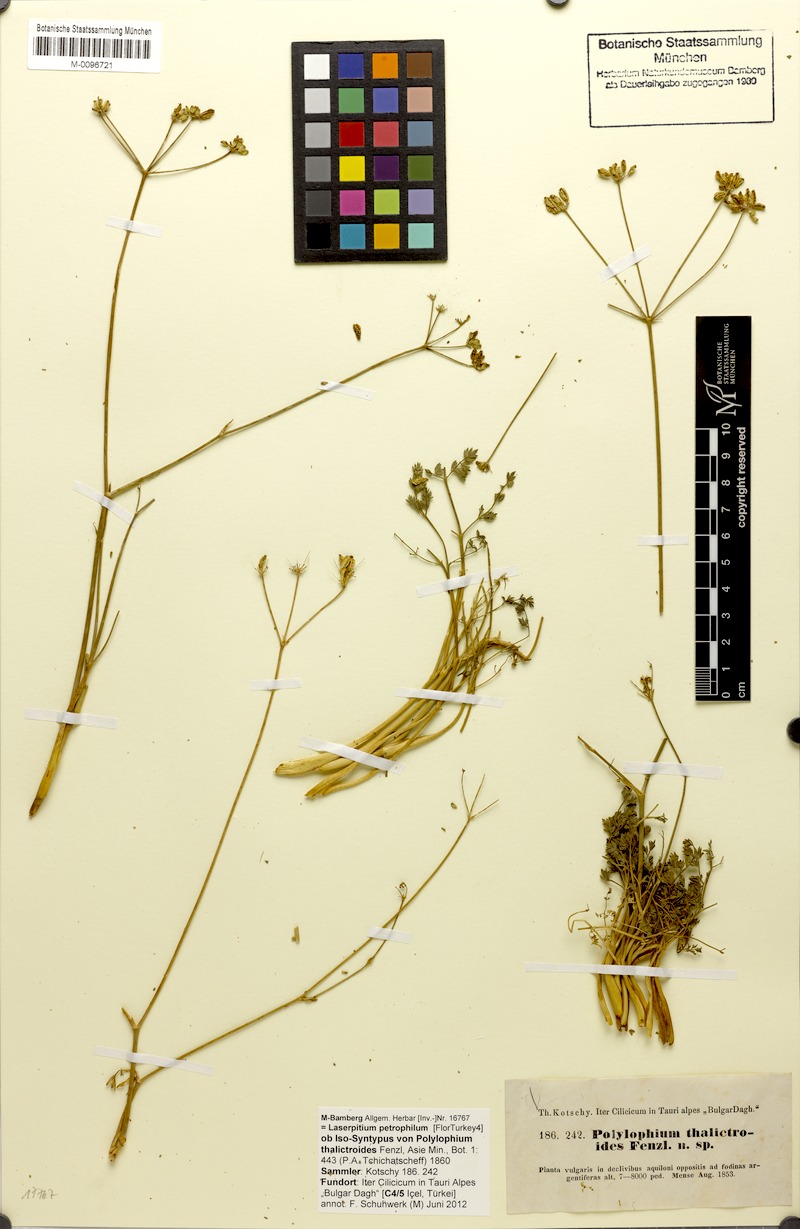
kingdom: Plantae
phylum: Tracheophyta
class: Magnoliopsida
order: Apiales
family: Apiaceae
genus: Ekimia
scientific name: Ekimia petrophila
